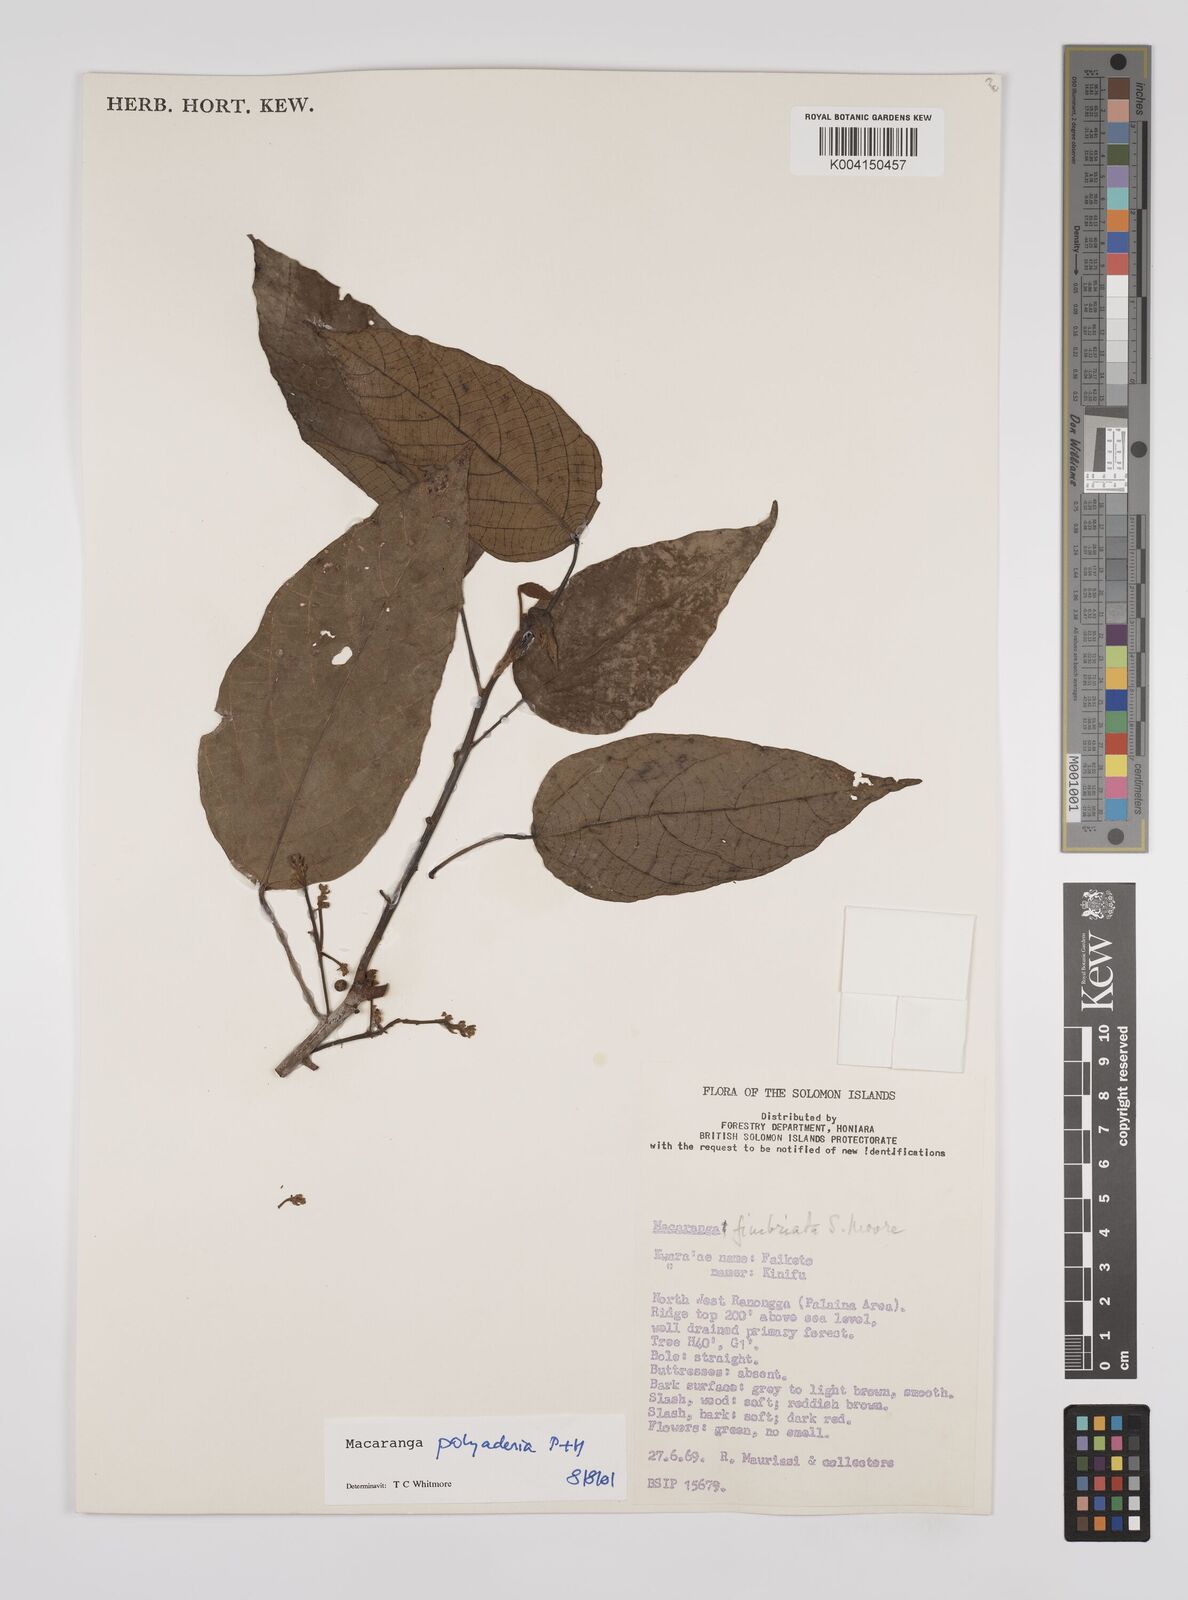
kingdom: Plantae
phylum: Tracheophyta
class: Magnoliopsida
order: Malpighiales
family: Euphorbiaceae
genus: Macaranga
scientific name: Macaranga polyadenia
